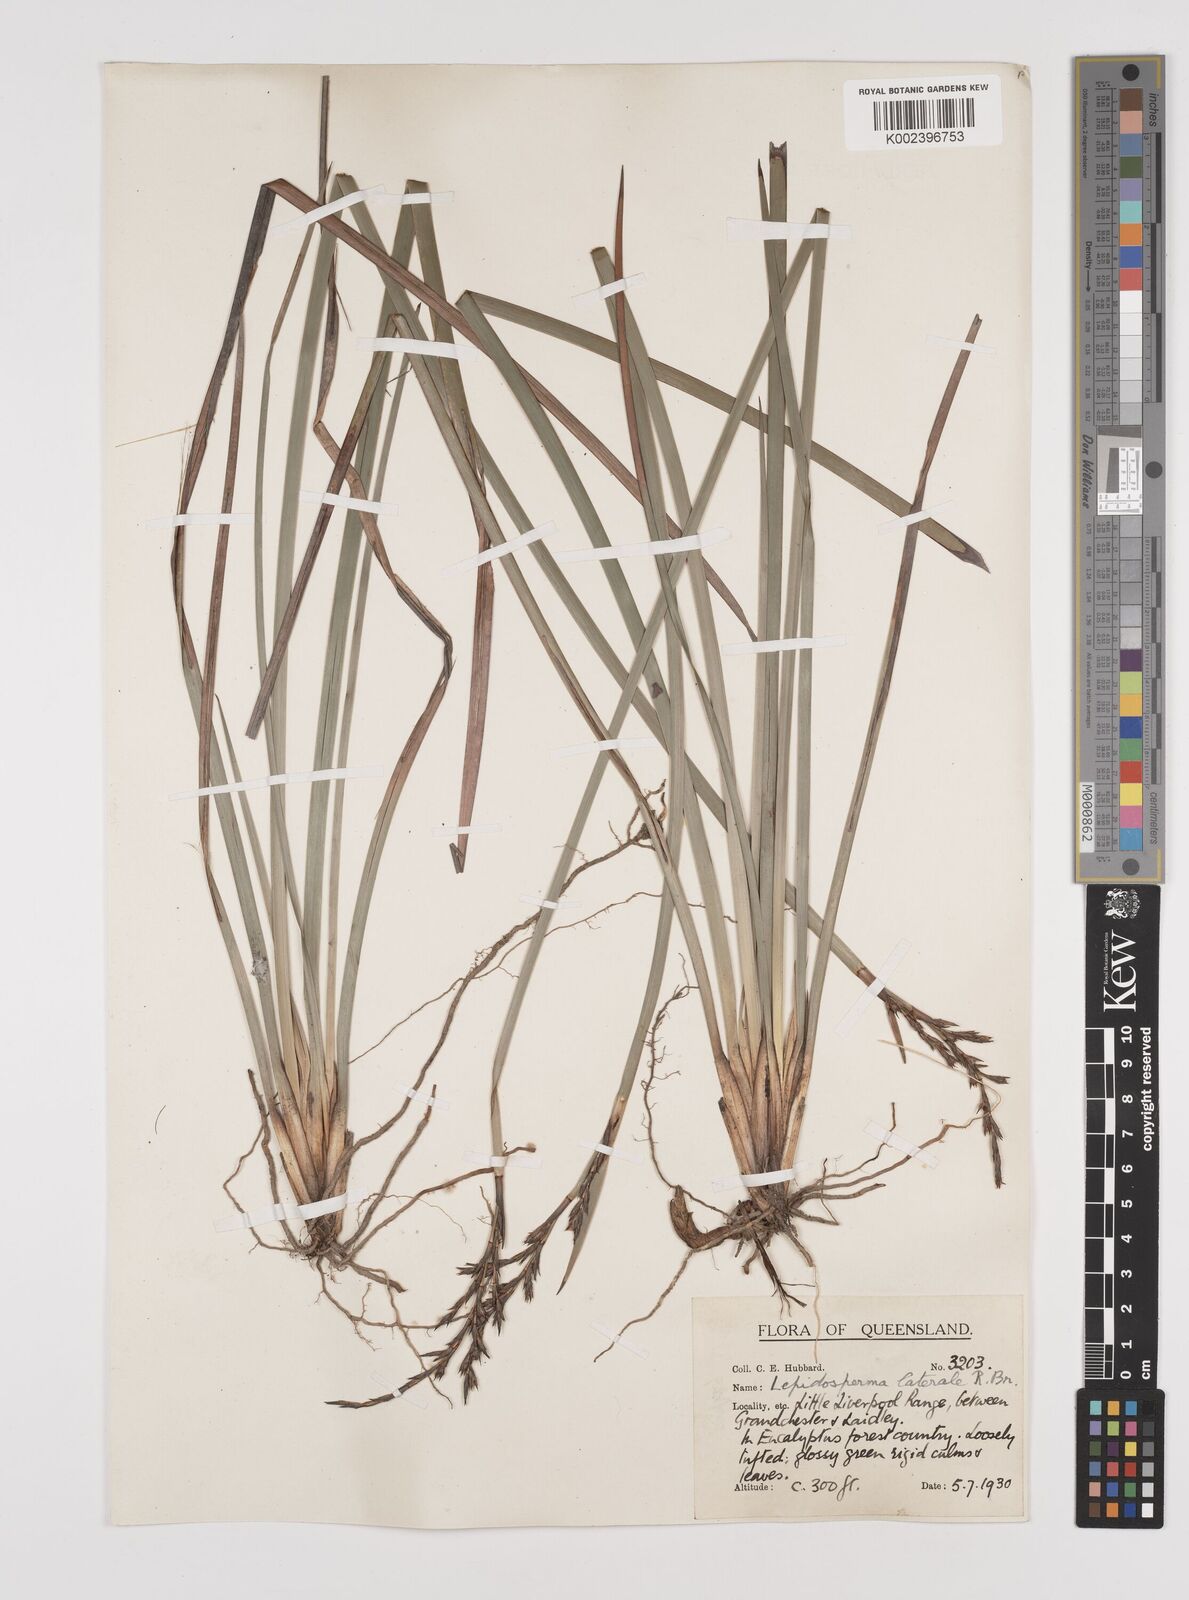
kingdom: Plantae
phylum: Tracheophyta
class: Liliopsida
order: Poales
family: Cyperaceae
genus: Lepidosperma
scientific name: Lepidosperma laterale
